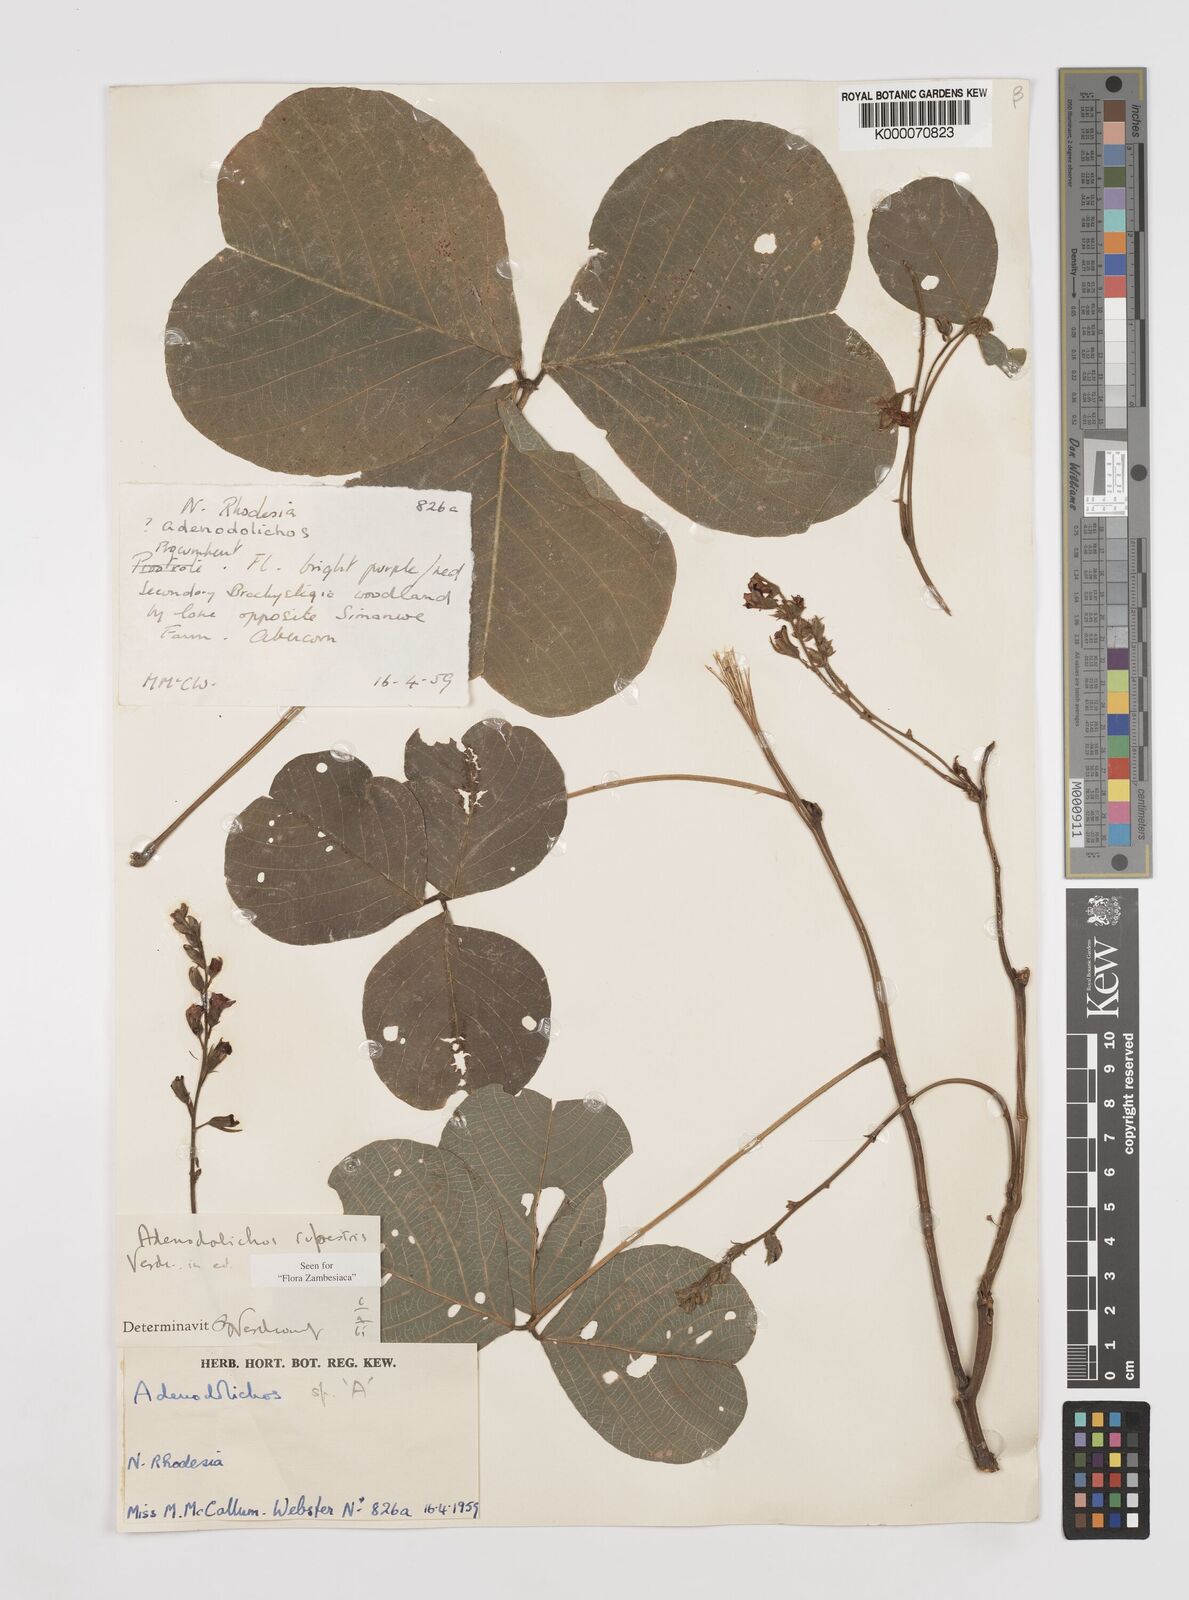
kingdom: Plantae
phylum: Tracheophyta
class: Magnoliopsida
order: Fabales
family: Fabaceae
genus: Adenodolichos
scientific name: Adenodolichos rupestris
